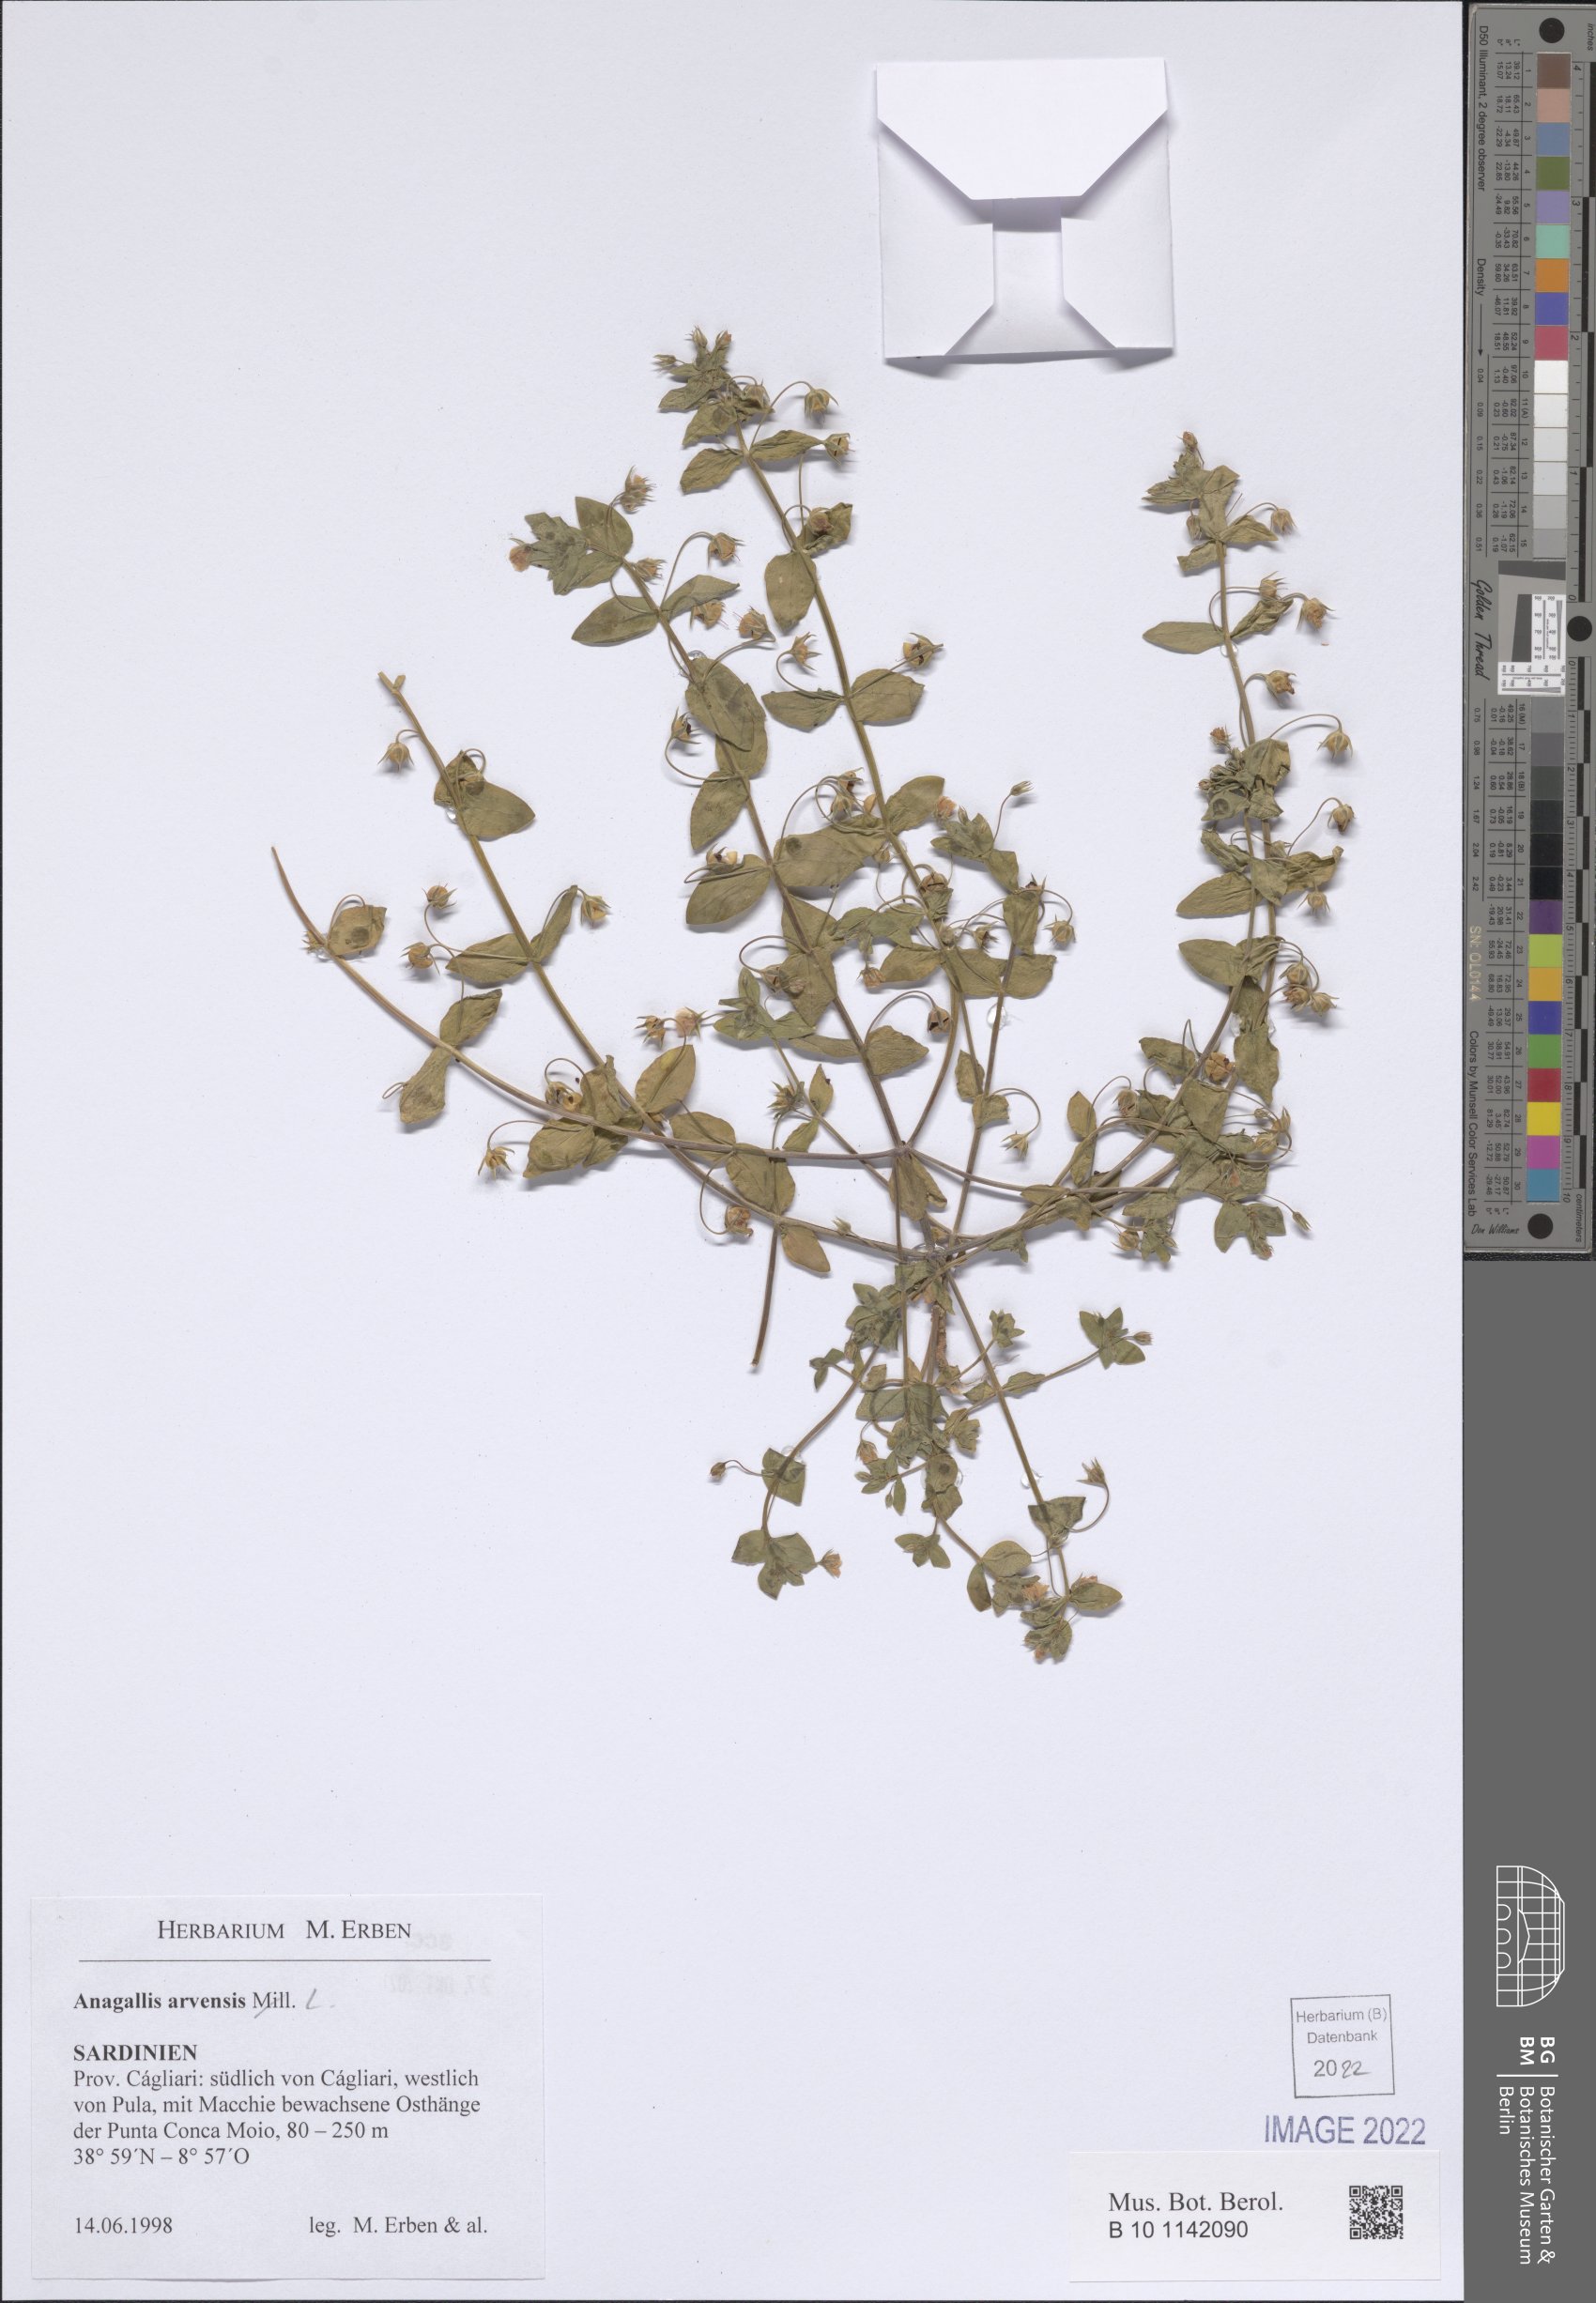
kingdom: Plantae
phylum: Tracheophyta
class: Magnoliopsida
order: Ericales
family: Primulaceae
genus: Lysimachia
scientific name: Lysimachia arvensis
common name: Scarlet pimpernel
